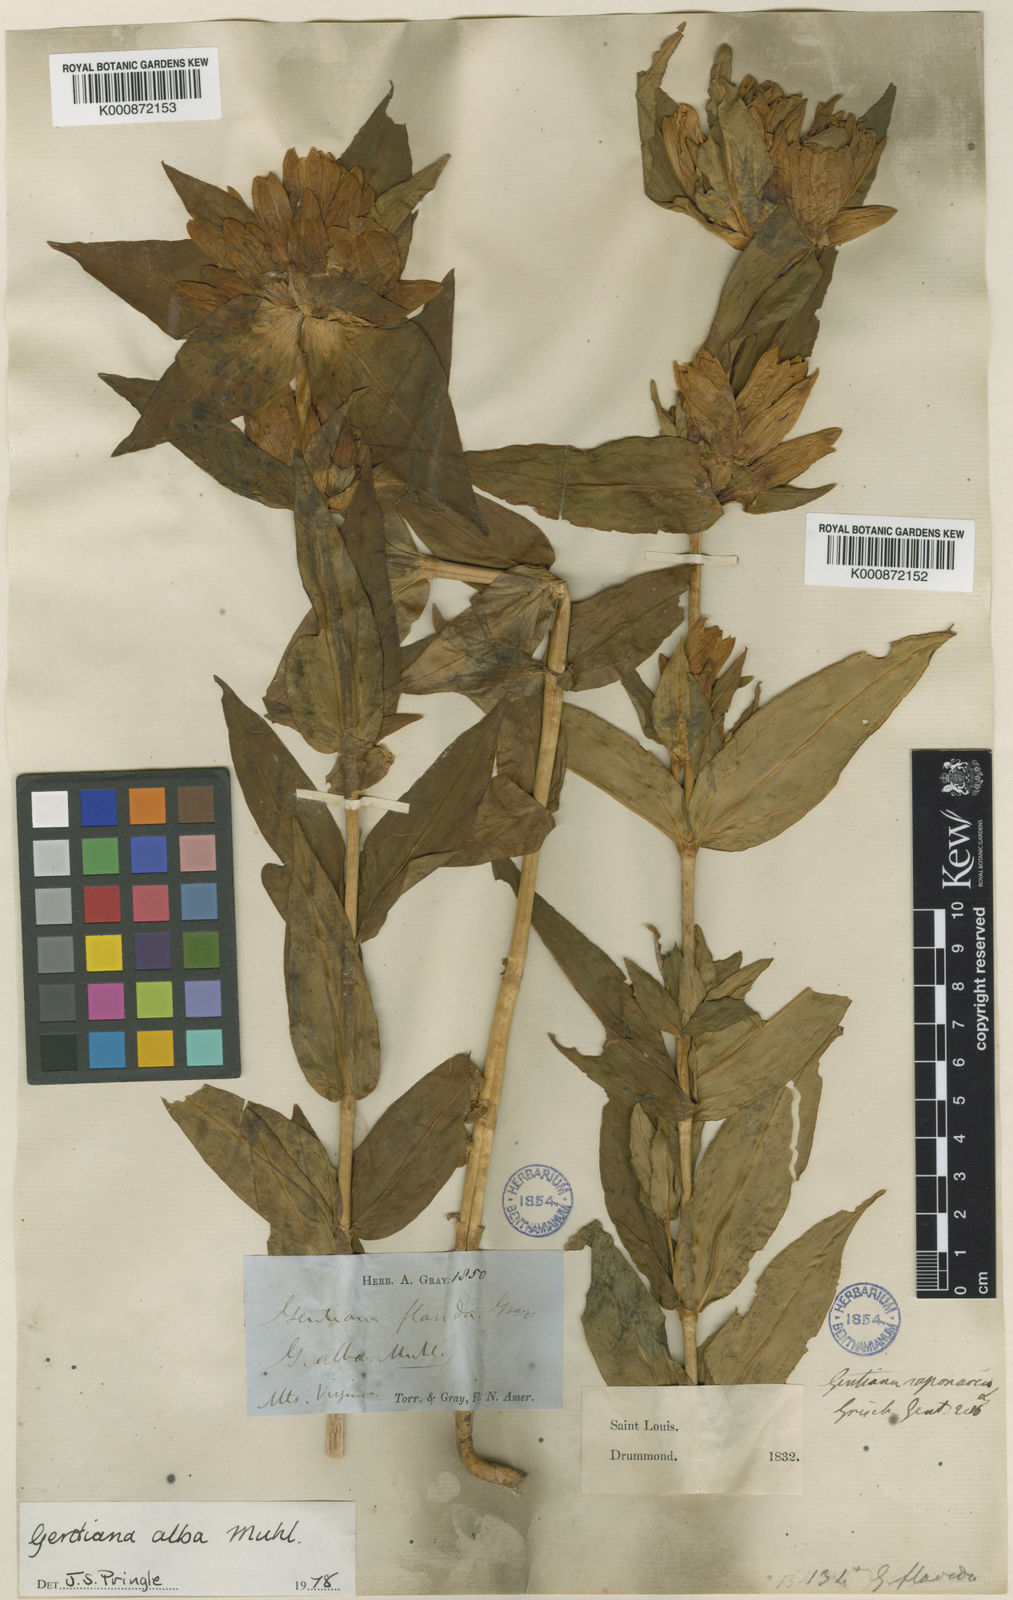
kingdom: Plantae
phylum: Tracheophyta
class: Magnoliopsida
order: Gentianales
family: Gentianaceae
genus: Gentiana
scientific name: Gentiana
